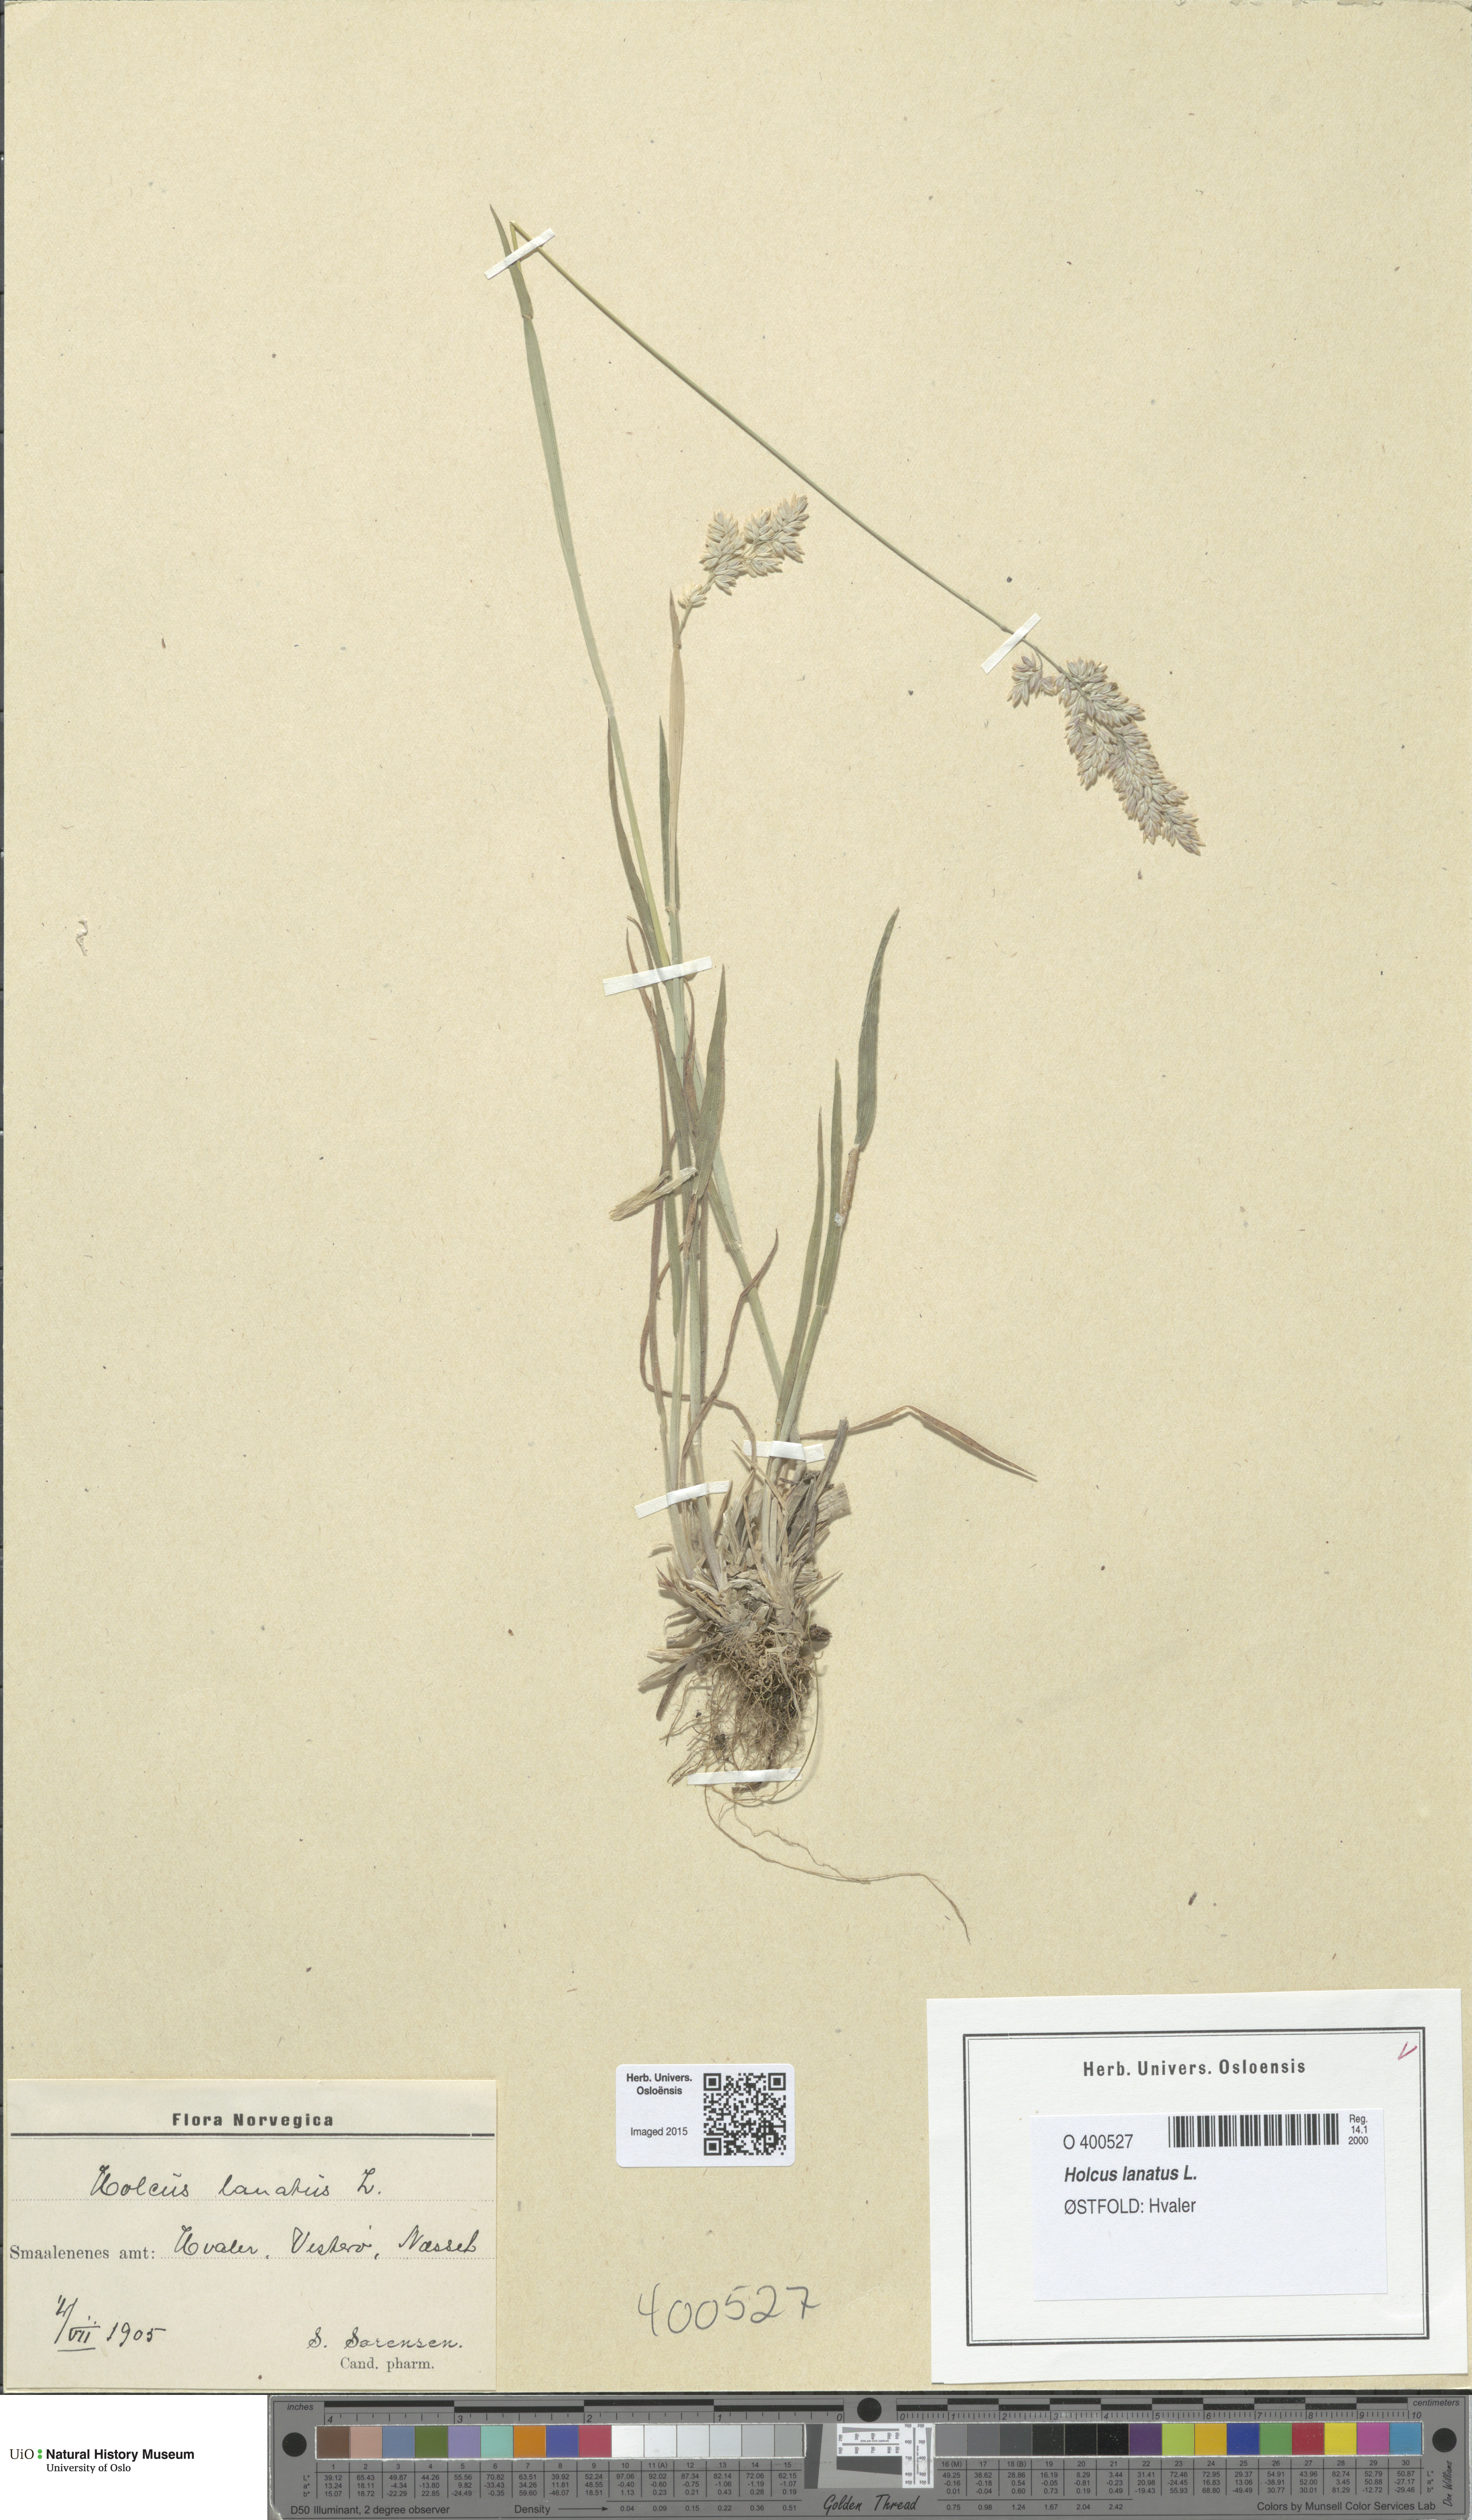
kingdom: Plantae
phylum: Tracheophyta
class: Liliopsida
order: Poales
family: Poaceae
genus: Holcus
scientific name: Holcus lanatus
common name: Yorkshire-fog
